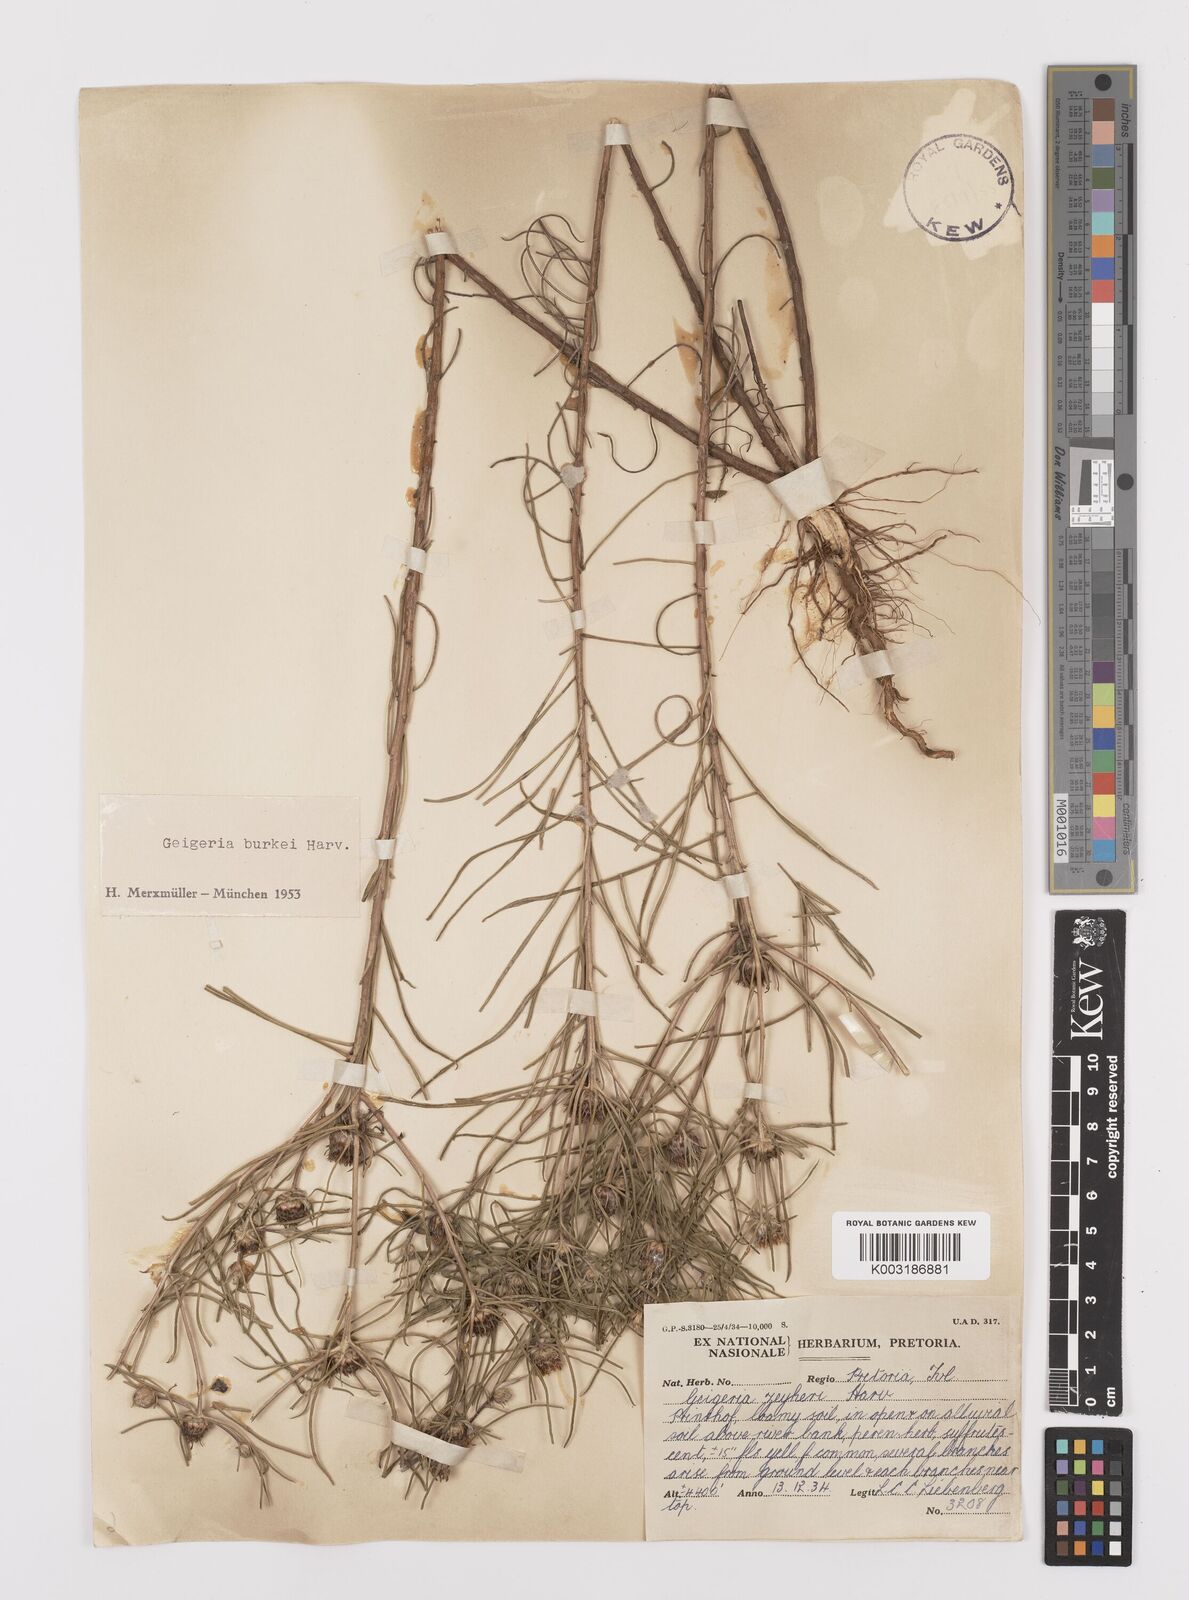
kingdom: Plantae
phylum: Tracheophyta
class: Magnoliopsida
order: Asterales
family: Asteraceae
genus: Geigeria
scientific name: Geigeria burkei
